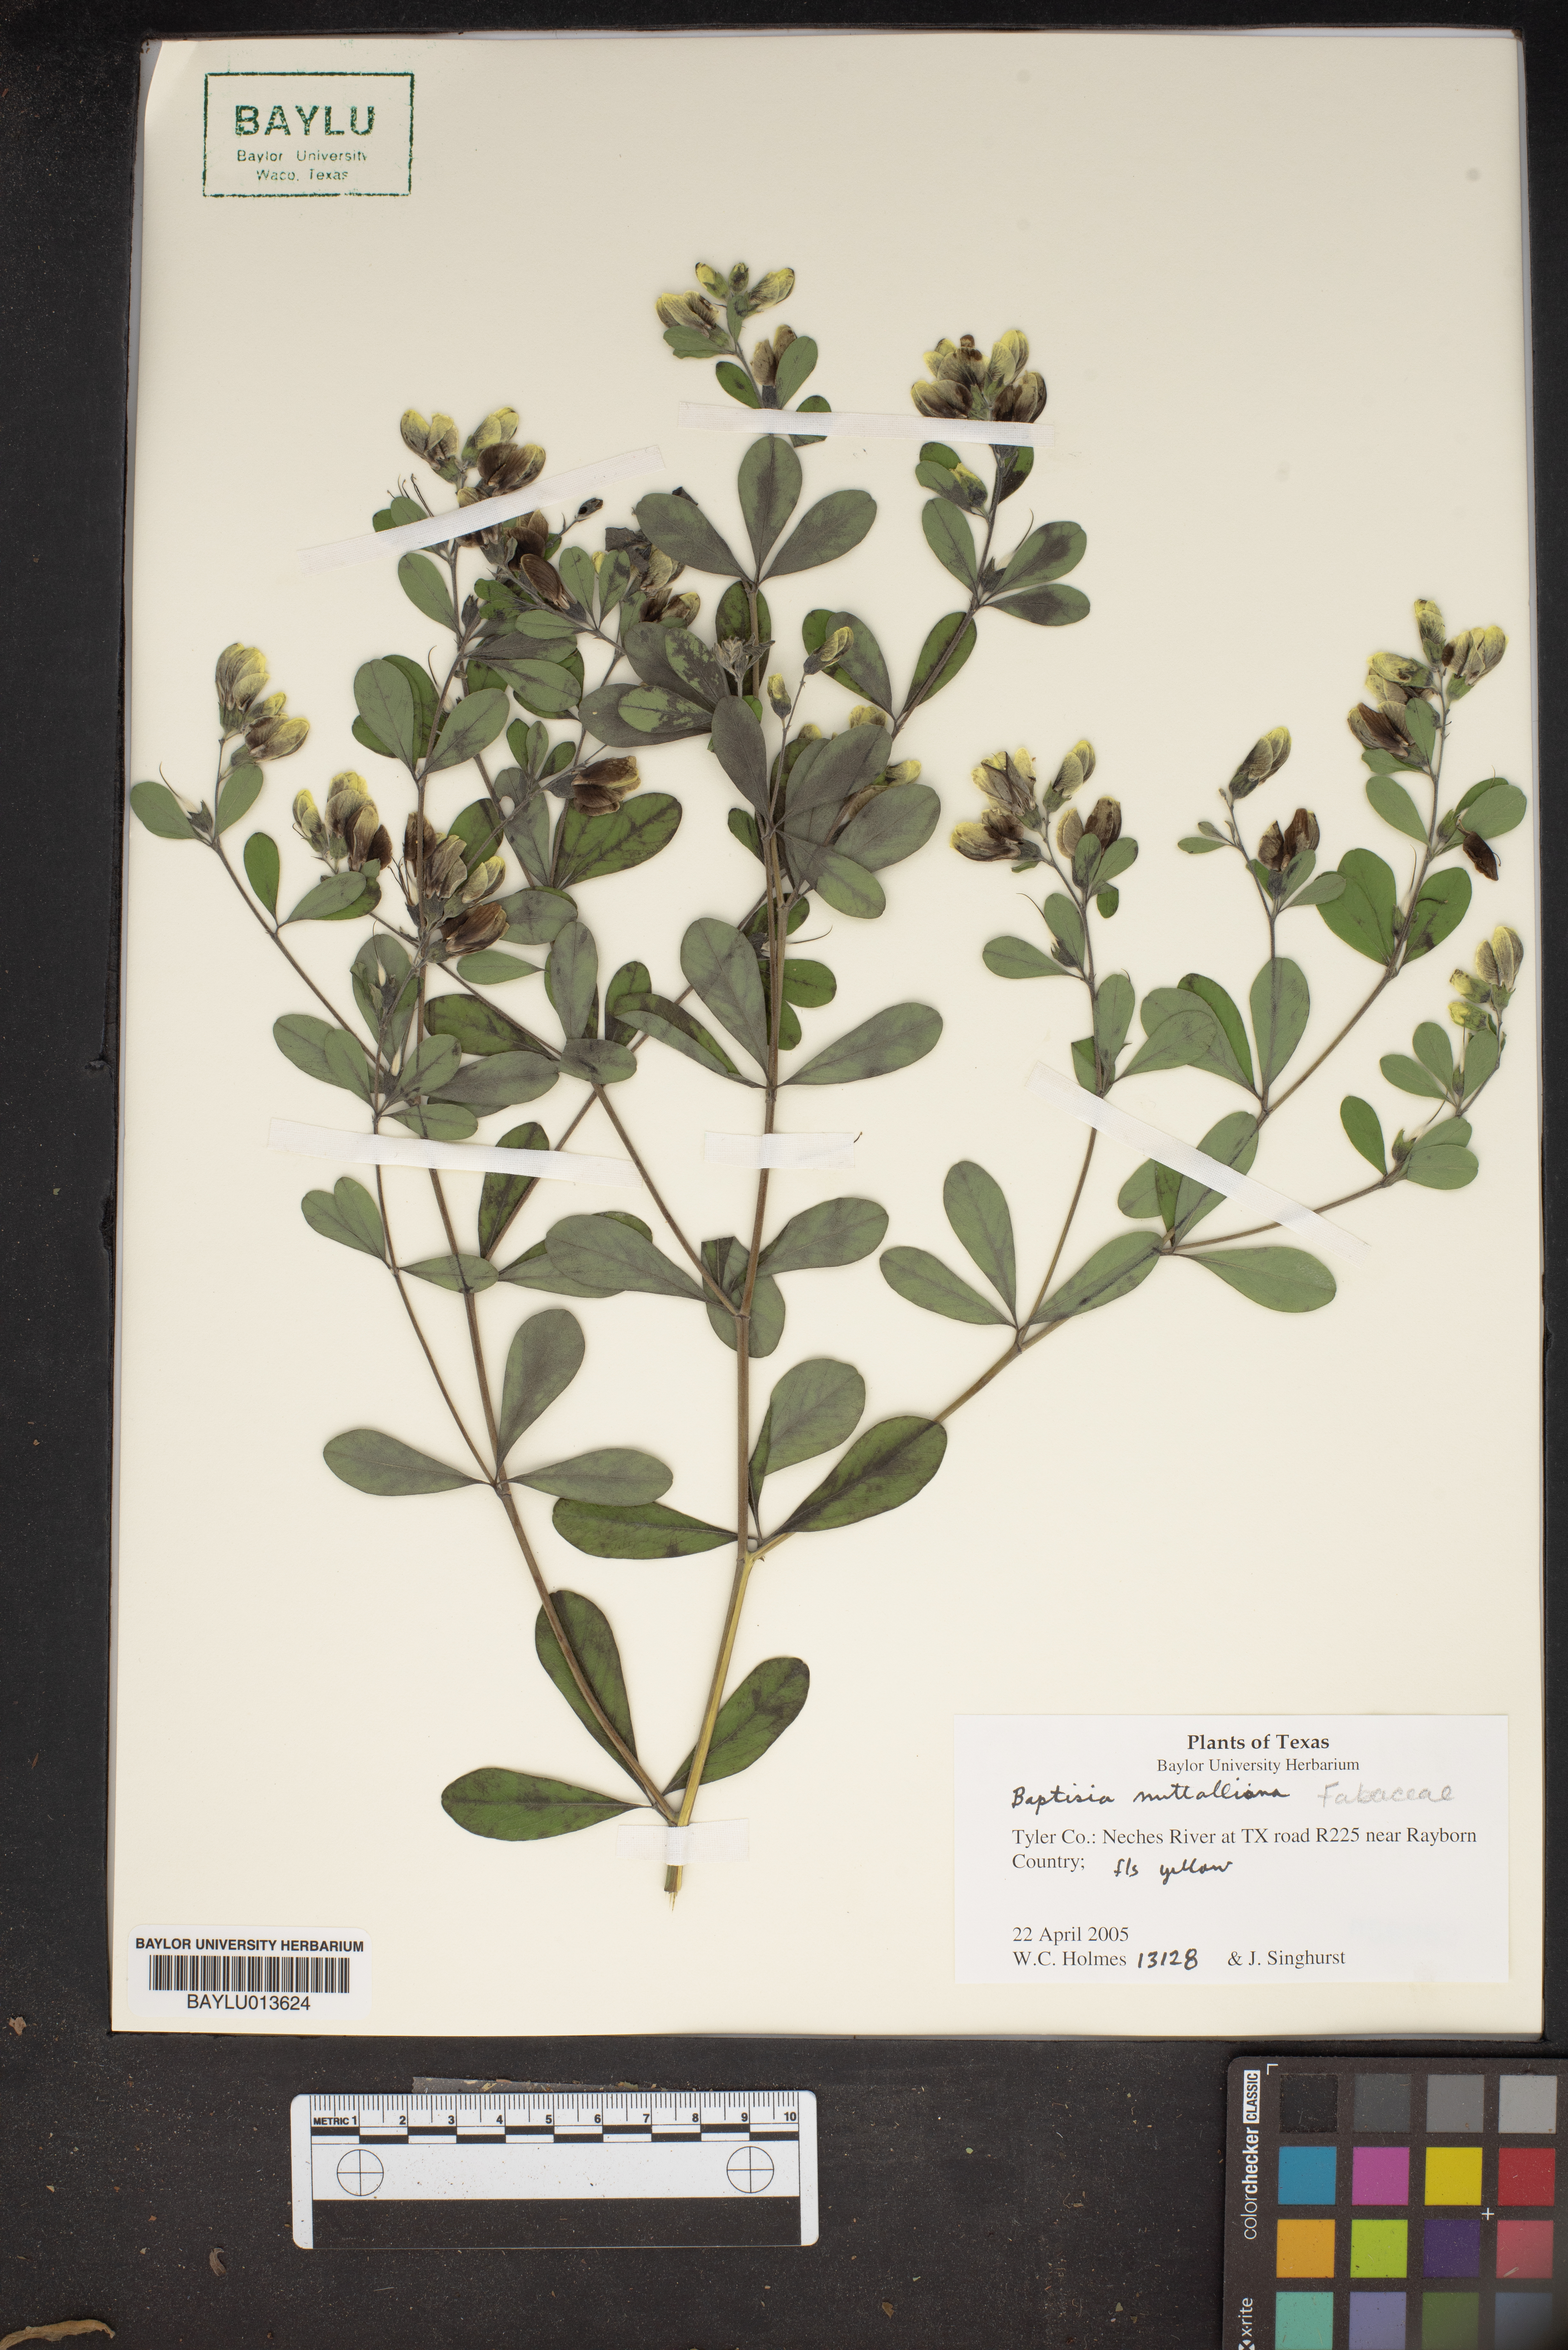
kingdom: Plantae
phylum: Tracheophyta
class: Magnoliopsida
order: Fabales
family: Fabaceae
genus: Baptisia
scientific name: Baptisia nuttalliana
